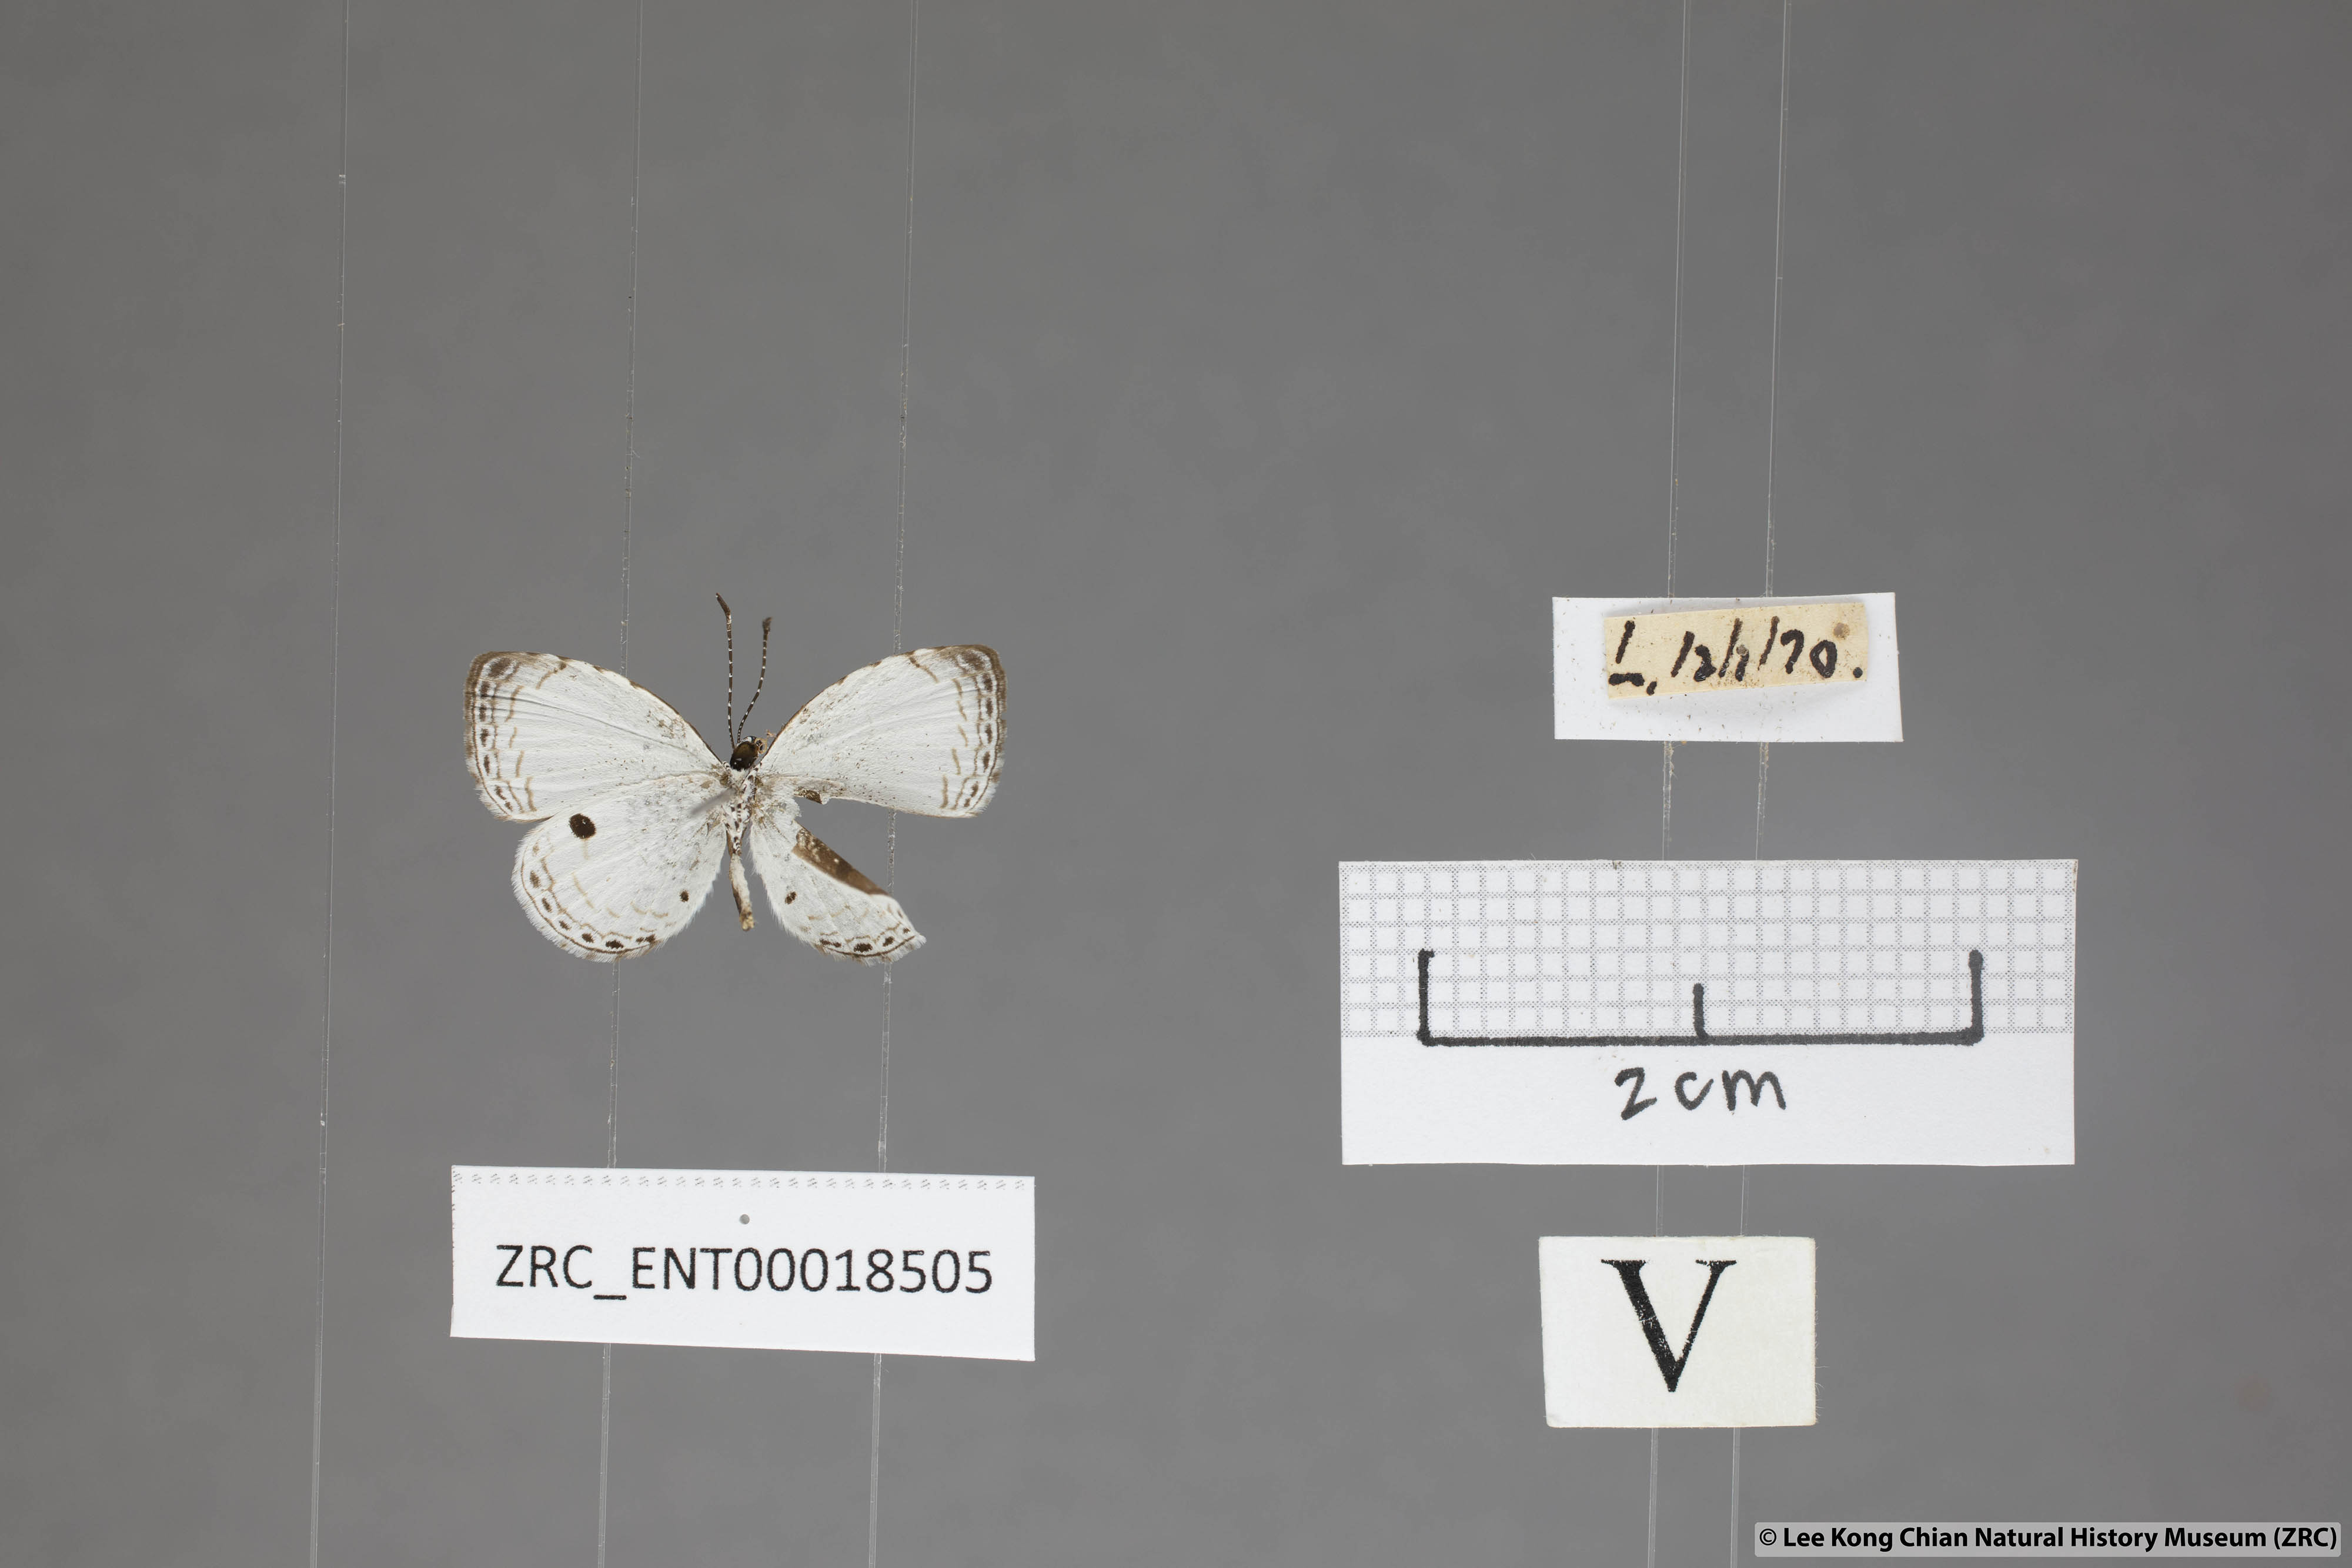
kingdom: Animalia
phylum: Arthropoda
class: Insecta
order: Lepidoptera
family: Lycaenidae
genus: Neopithecops
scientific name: Neopithecops zalmora
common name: Quaker
